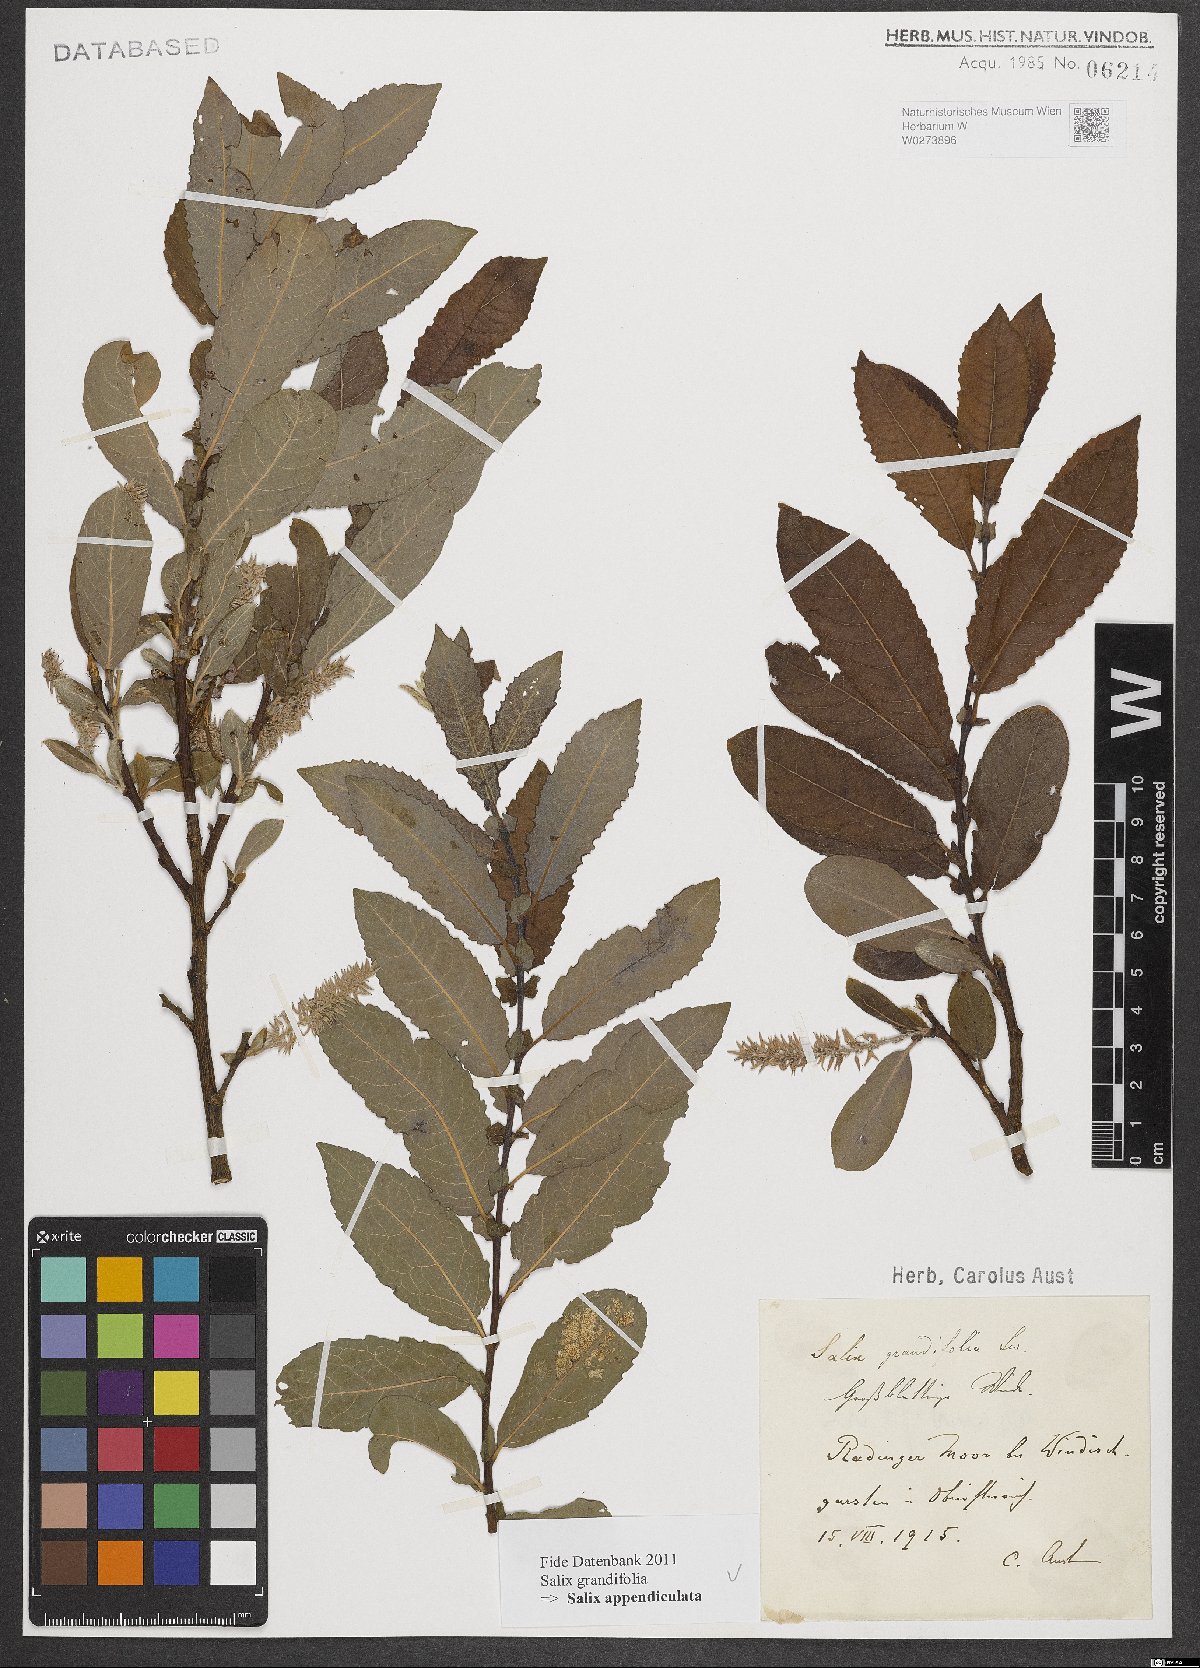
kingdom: Plantae
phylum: Tracheophyta
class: Magnoliopsida
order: Malpighiales
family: Salicaceae
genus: Salix
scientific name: Salix appendiculata
